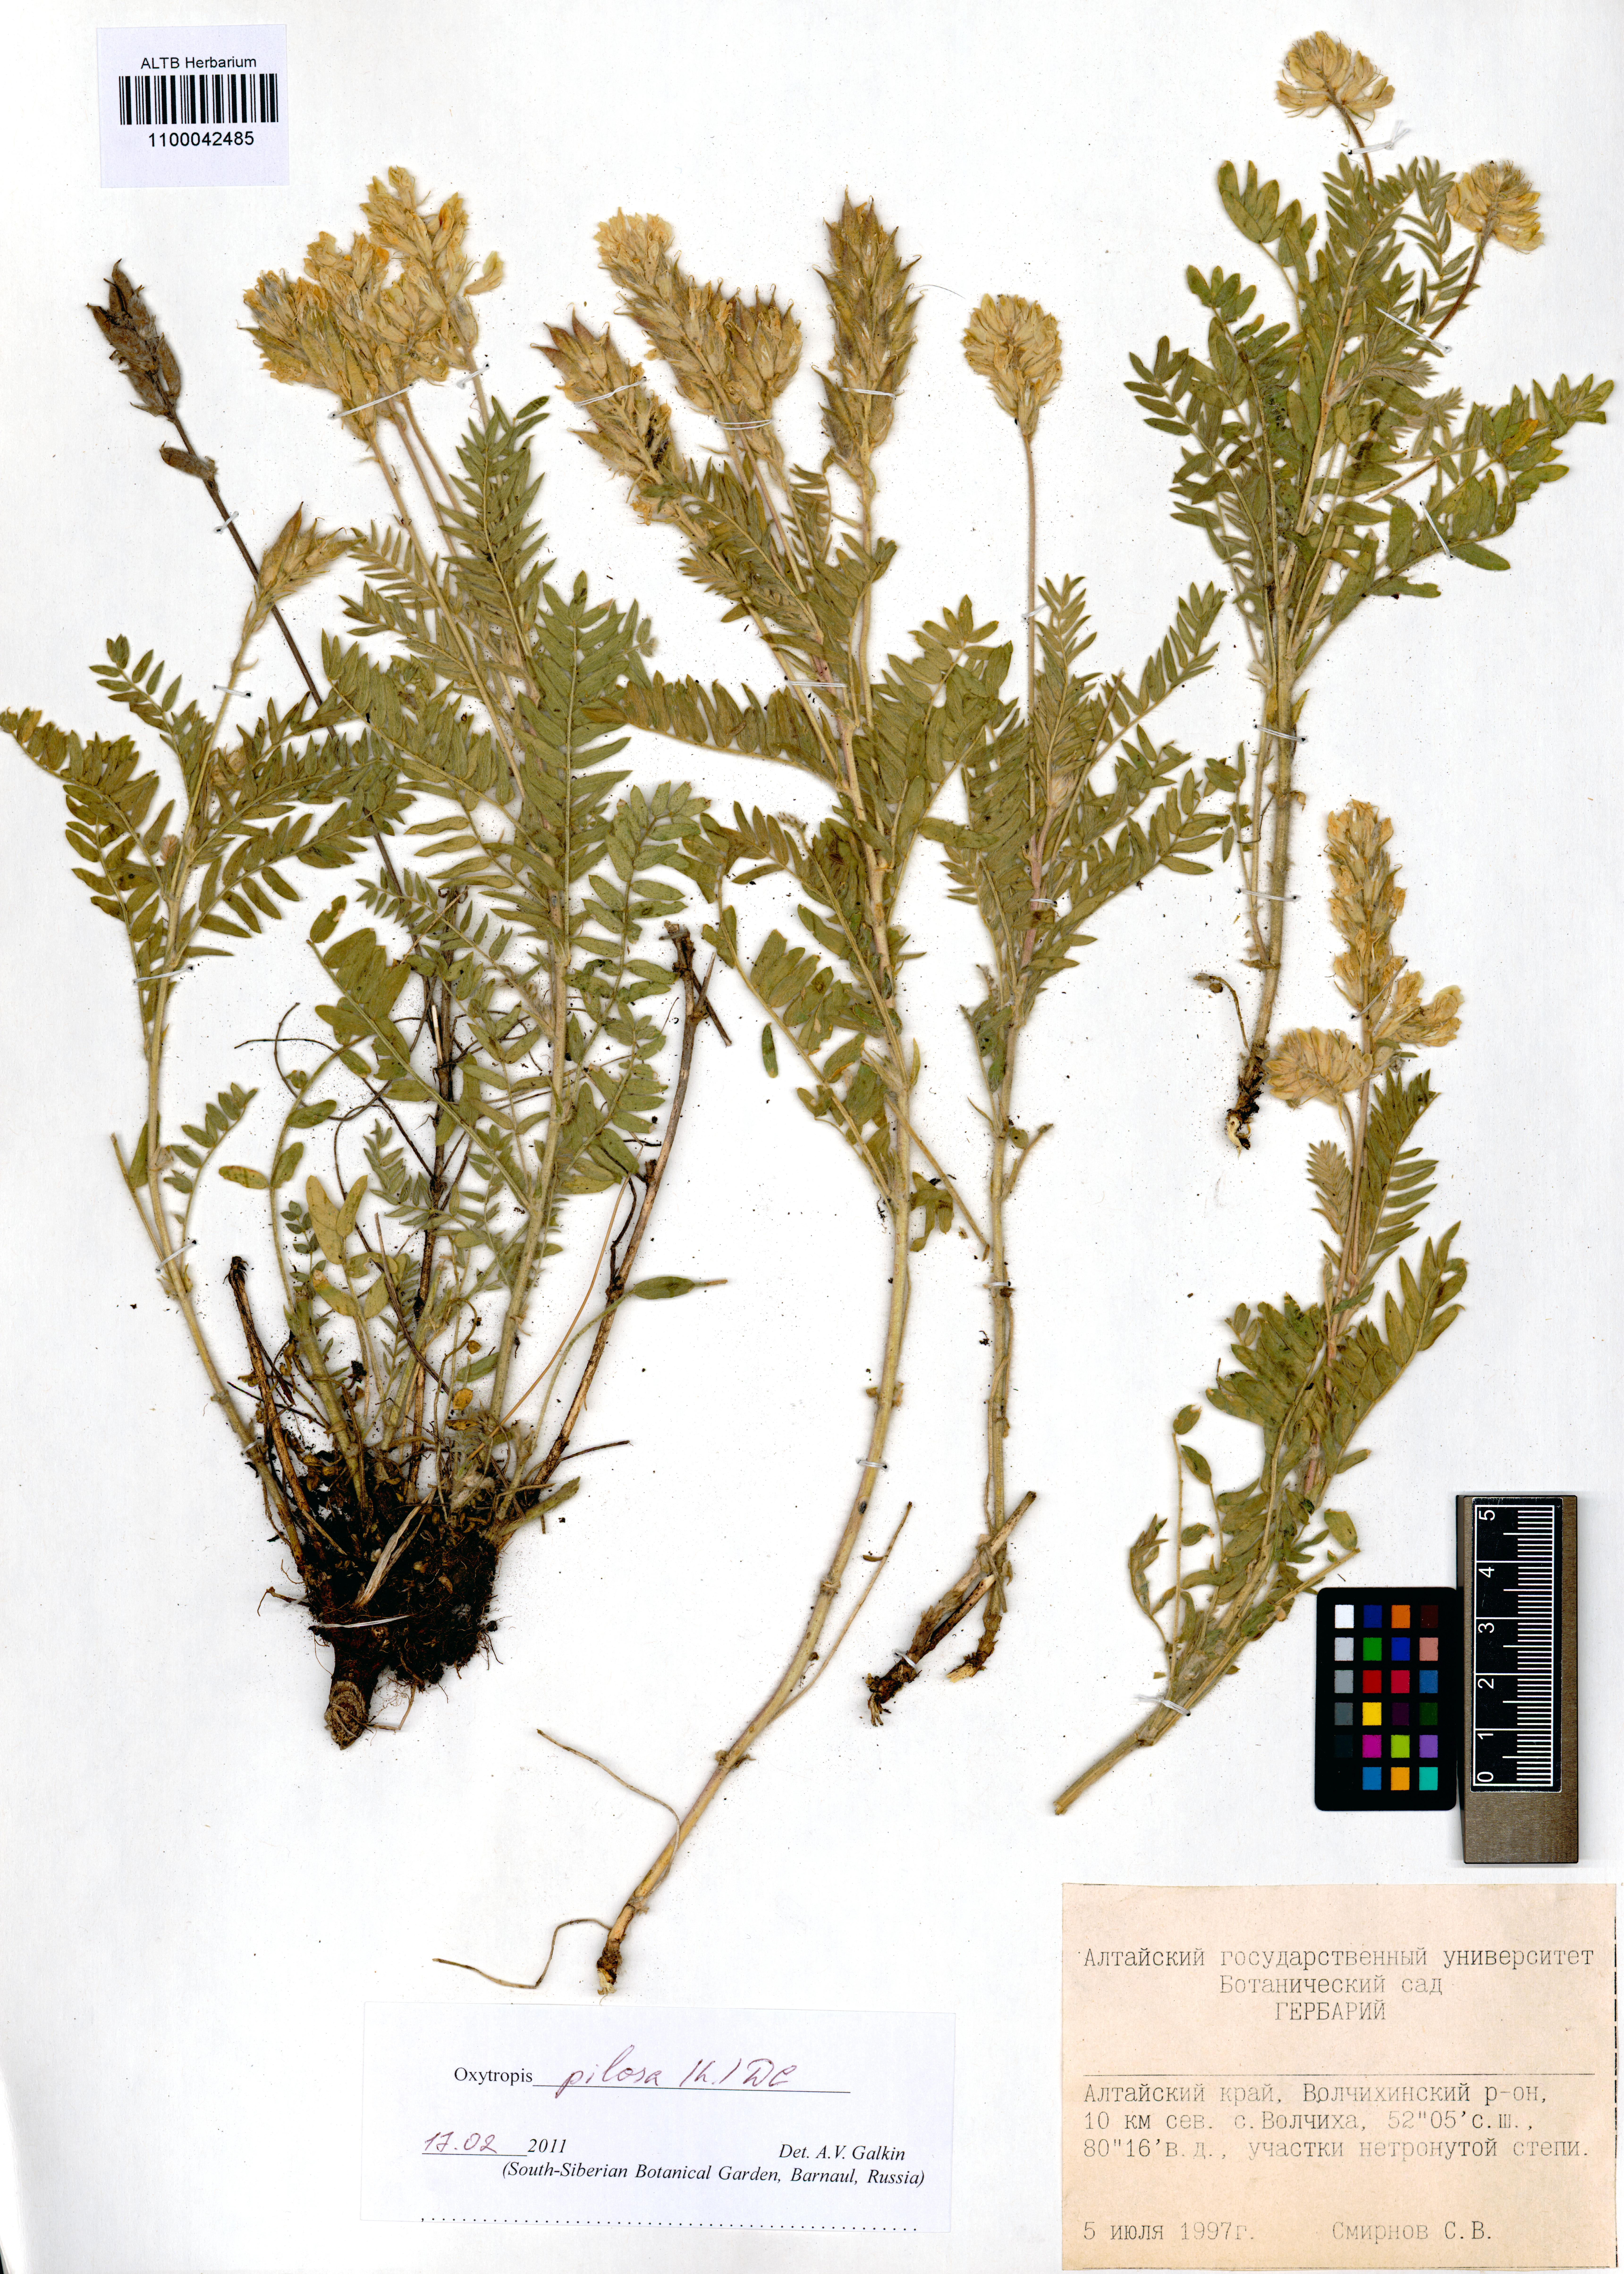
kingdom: Plantae
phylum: Tracheophyta
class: Magnoliopsida
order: Fabales
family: Fabaceae
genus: Oxytropis
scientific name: Oxytropis pilosa
